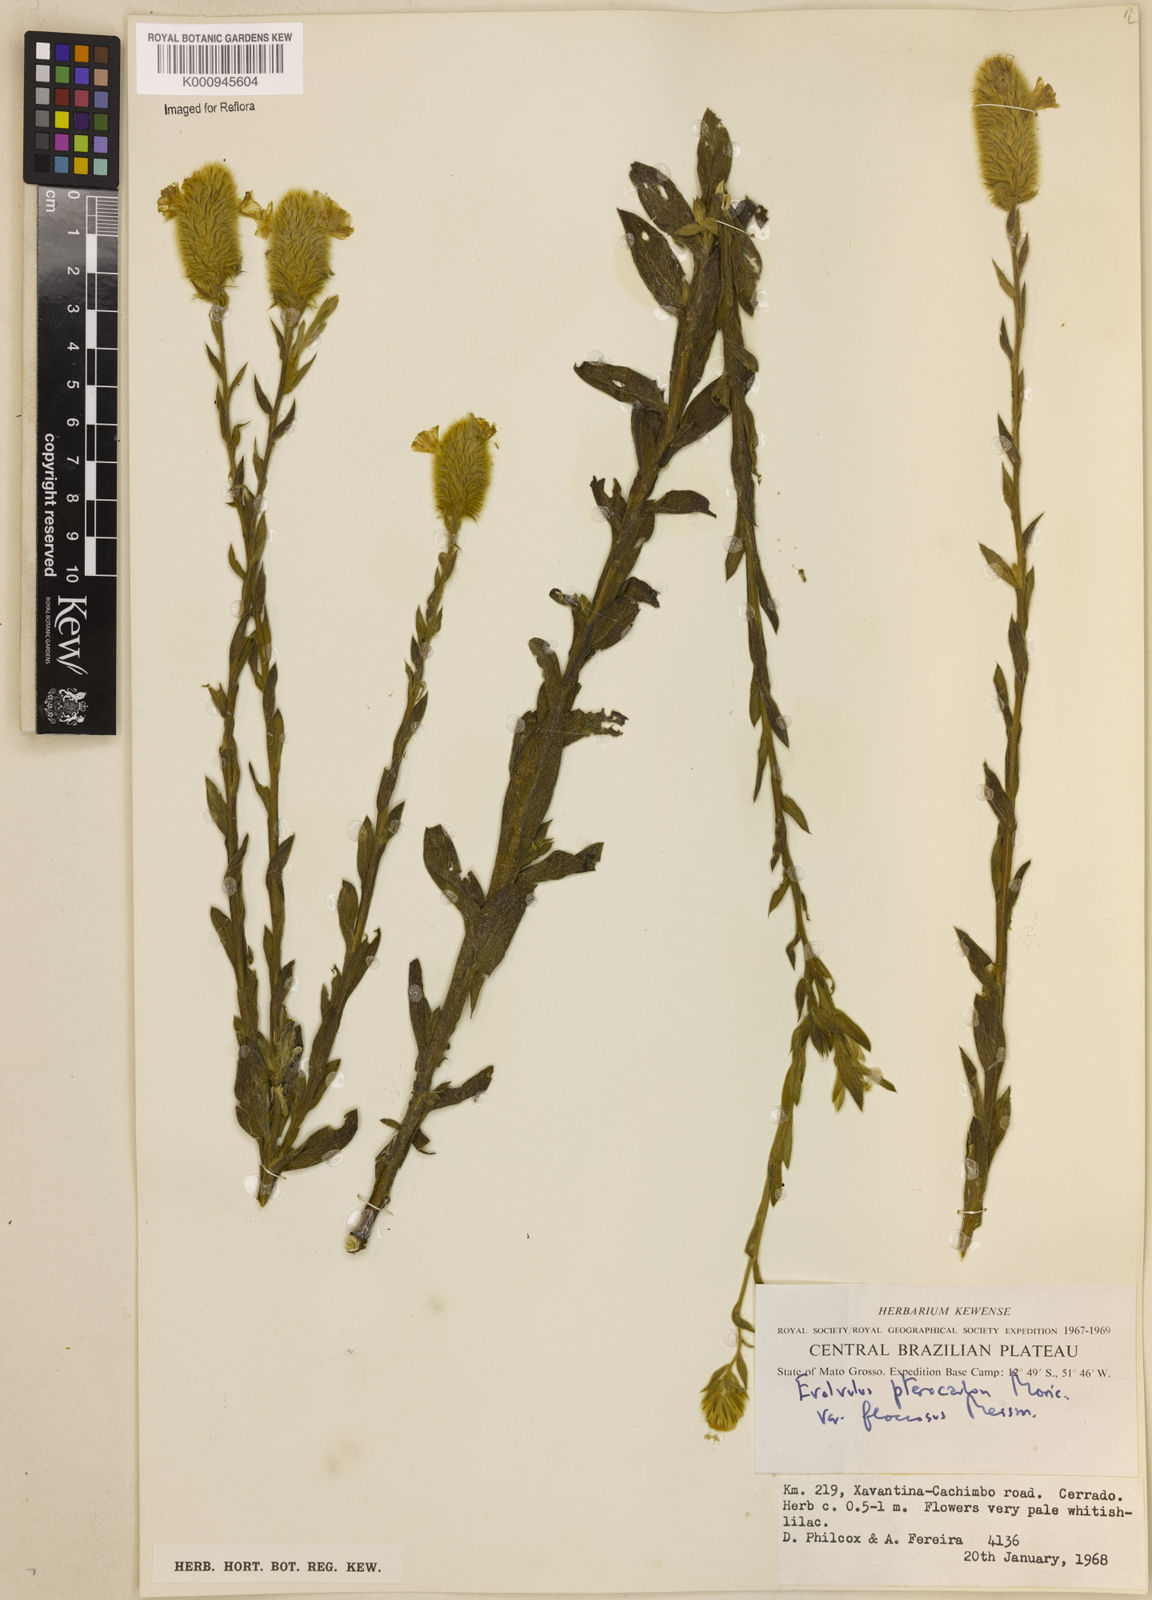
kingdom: Plantae
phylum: Tracheophyta
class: Magnoliopsida
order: Solanales
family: Convolvulaceae
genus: Evolvulus
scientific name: Evolvulus pterocaulon
